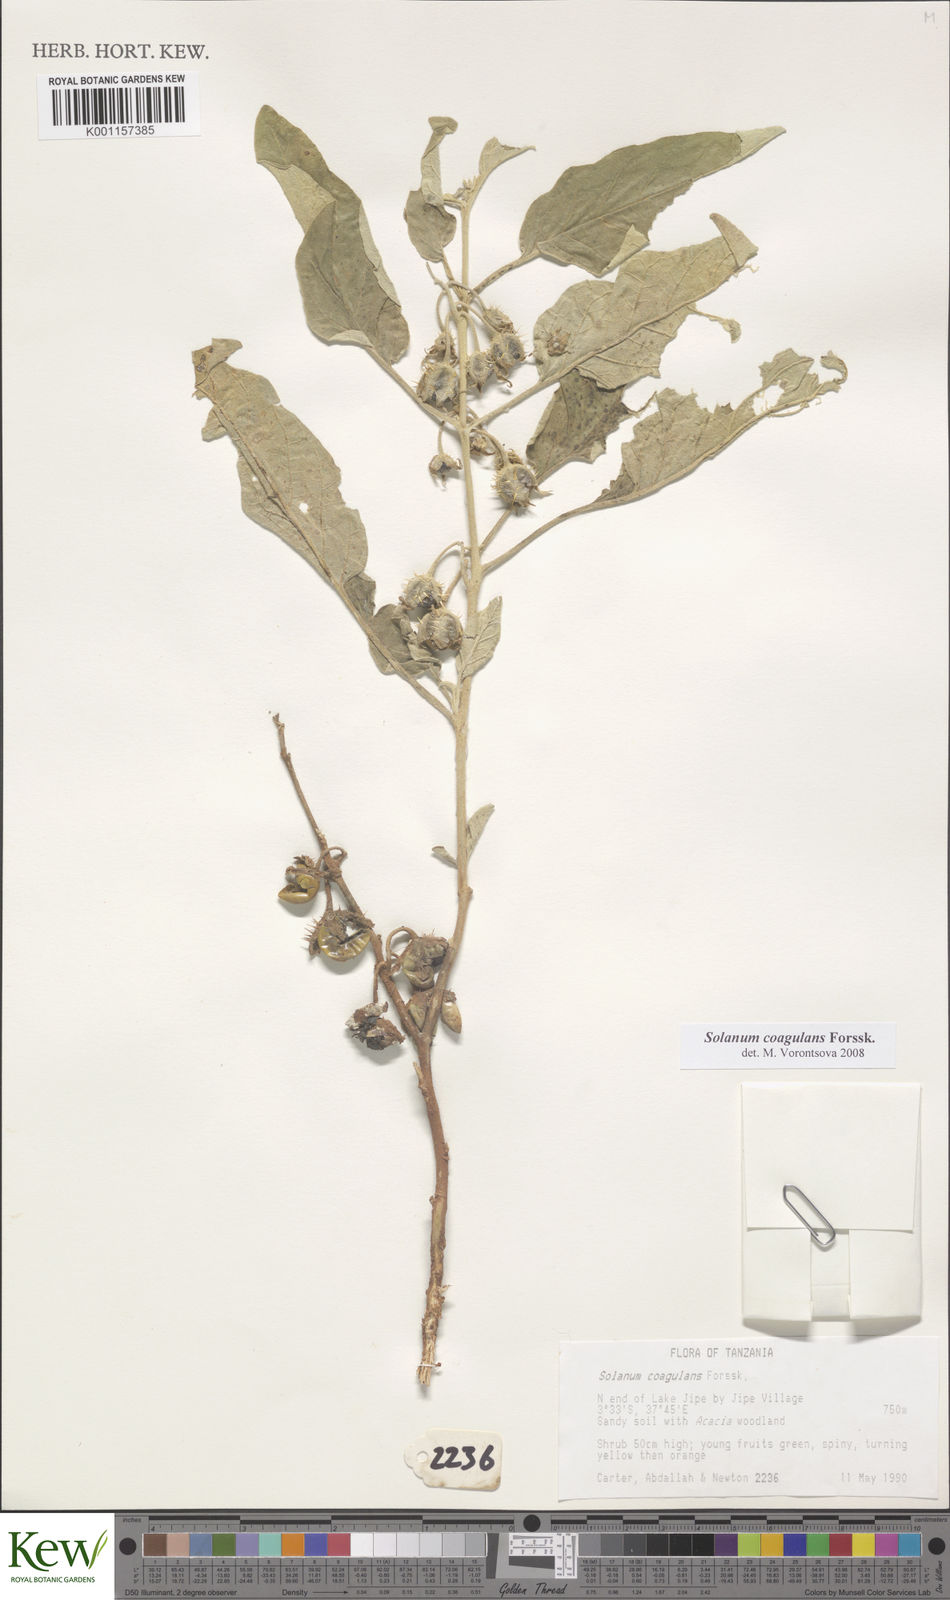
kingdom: Plantae
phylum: Tracheophyta
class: Magnoliopsida
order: Solanales
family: Solanaceae
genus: Solanum
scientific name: Solanum coagulans
